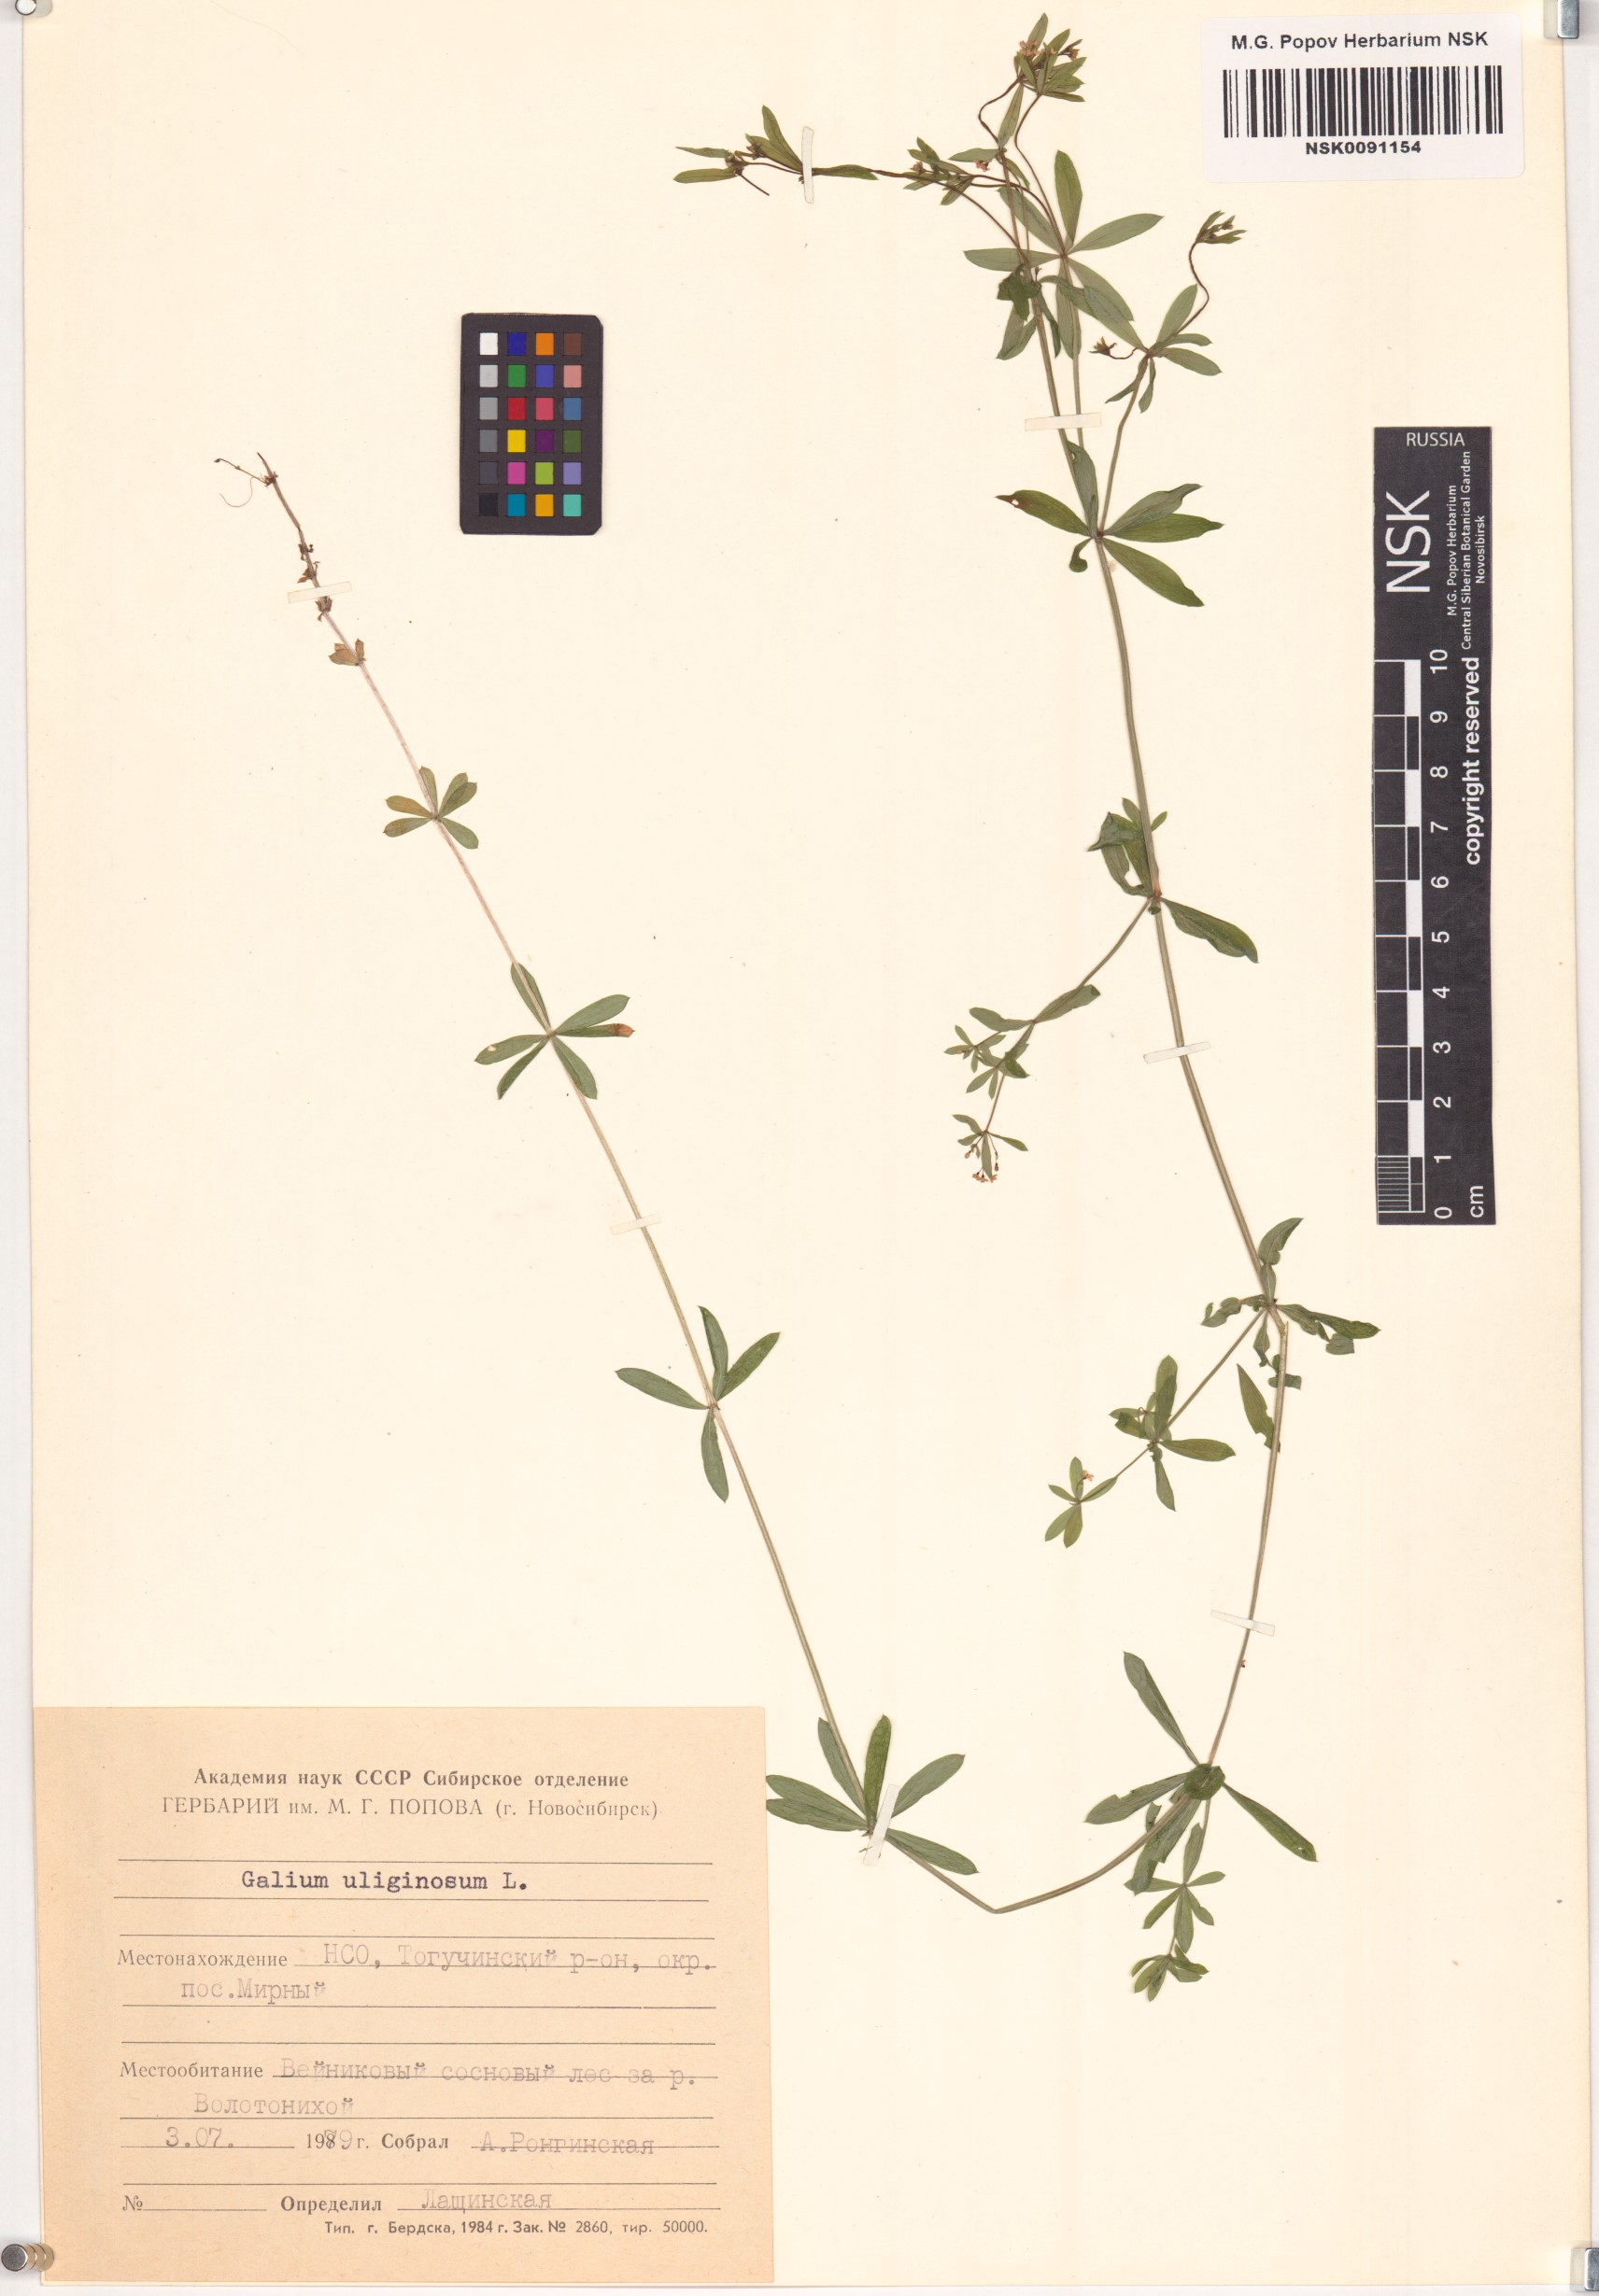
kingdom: Plantae
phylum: Tracheophyta
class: Magnoliopsida
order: Gentianales
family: Rubiaceae
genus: Galium
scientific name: Galium uliginosum
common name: Fen bedstraw
